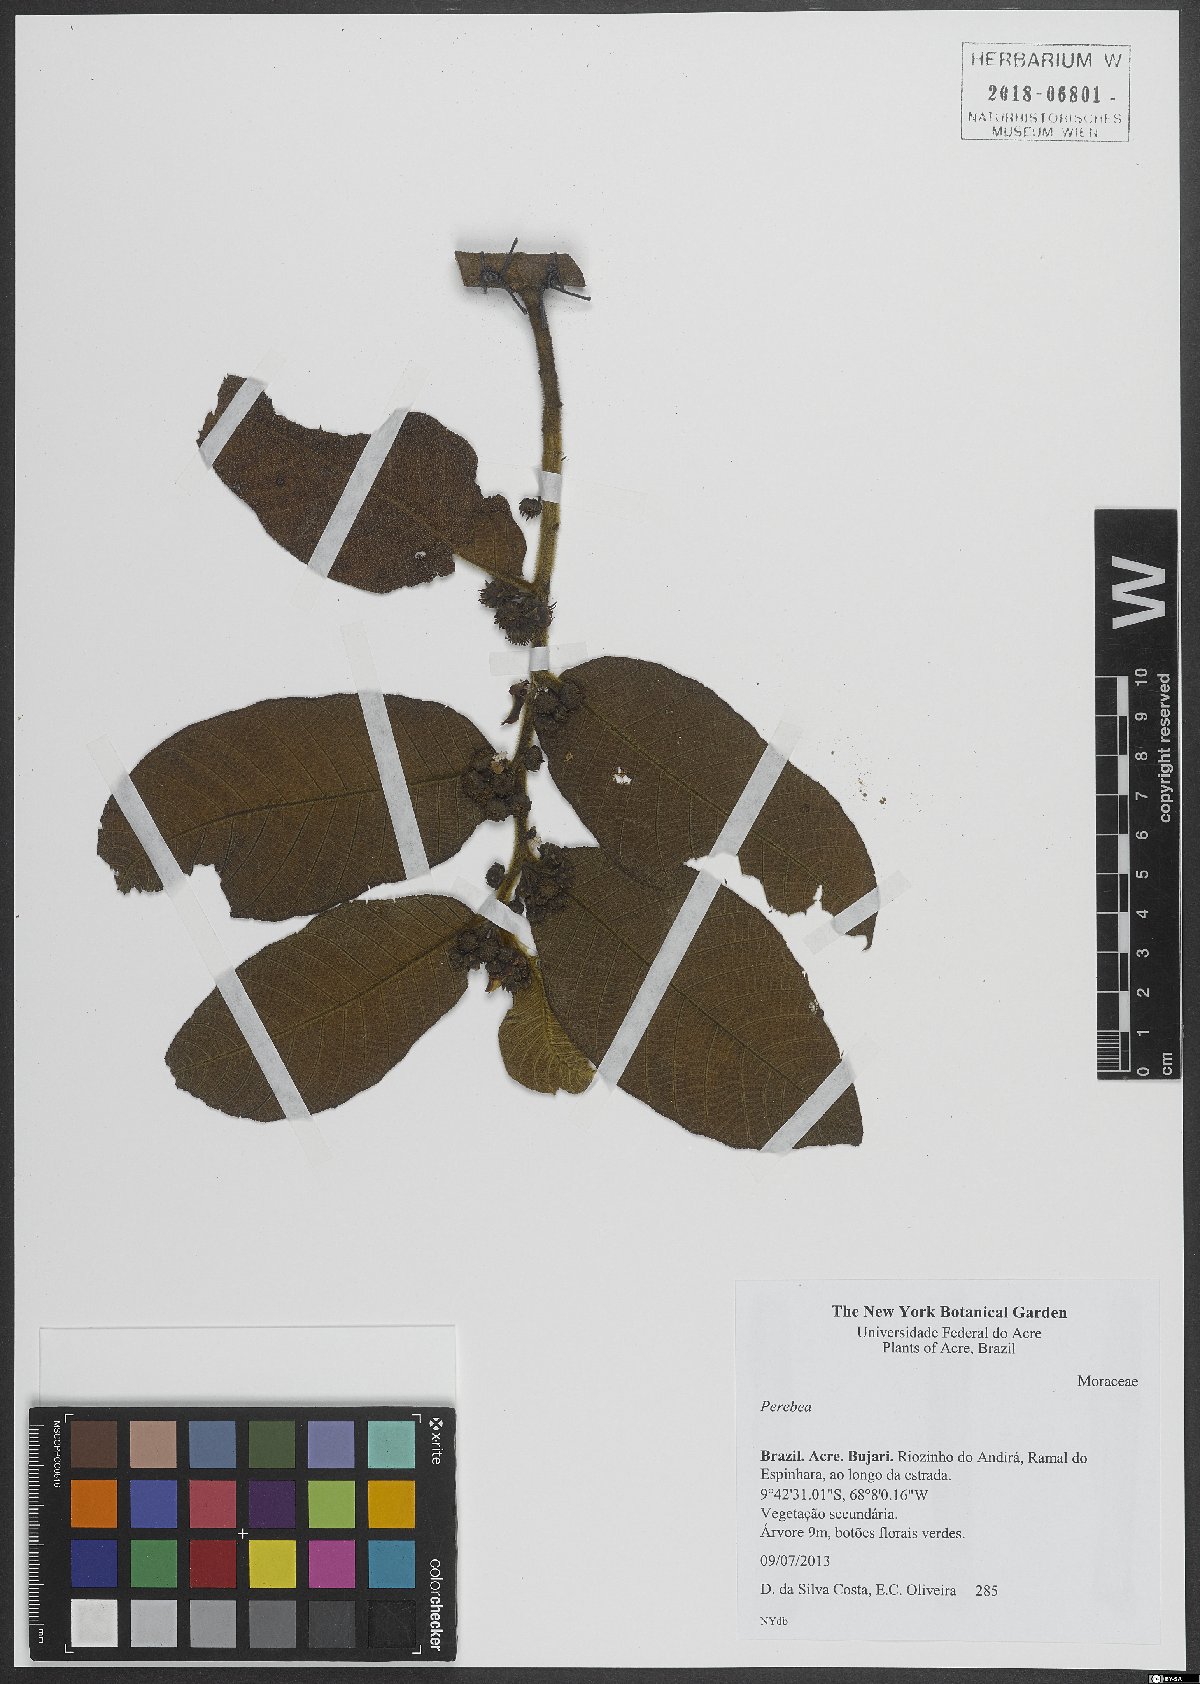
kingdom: Plantae
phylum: Tracheophyta
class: Magnoliopsida
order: Rosales
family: Moraceae
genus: Perebea
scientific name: Perebea
